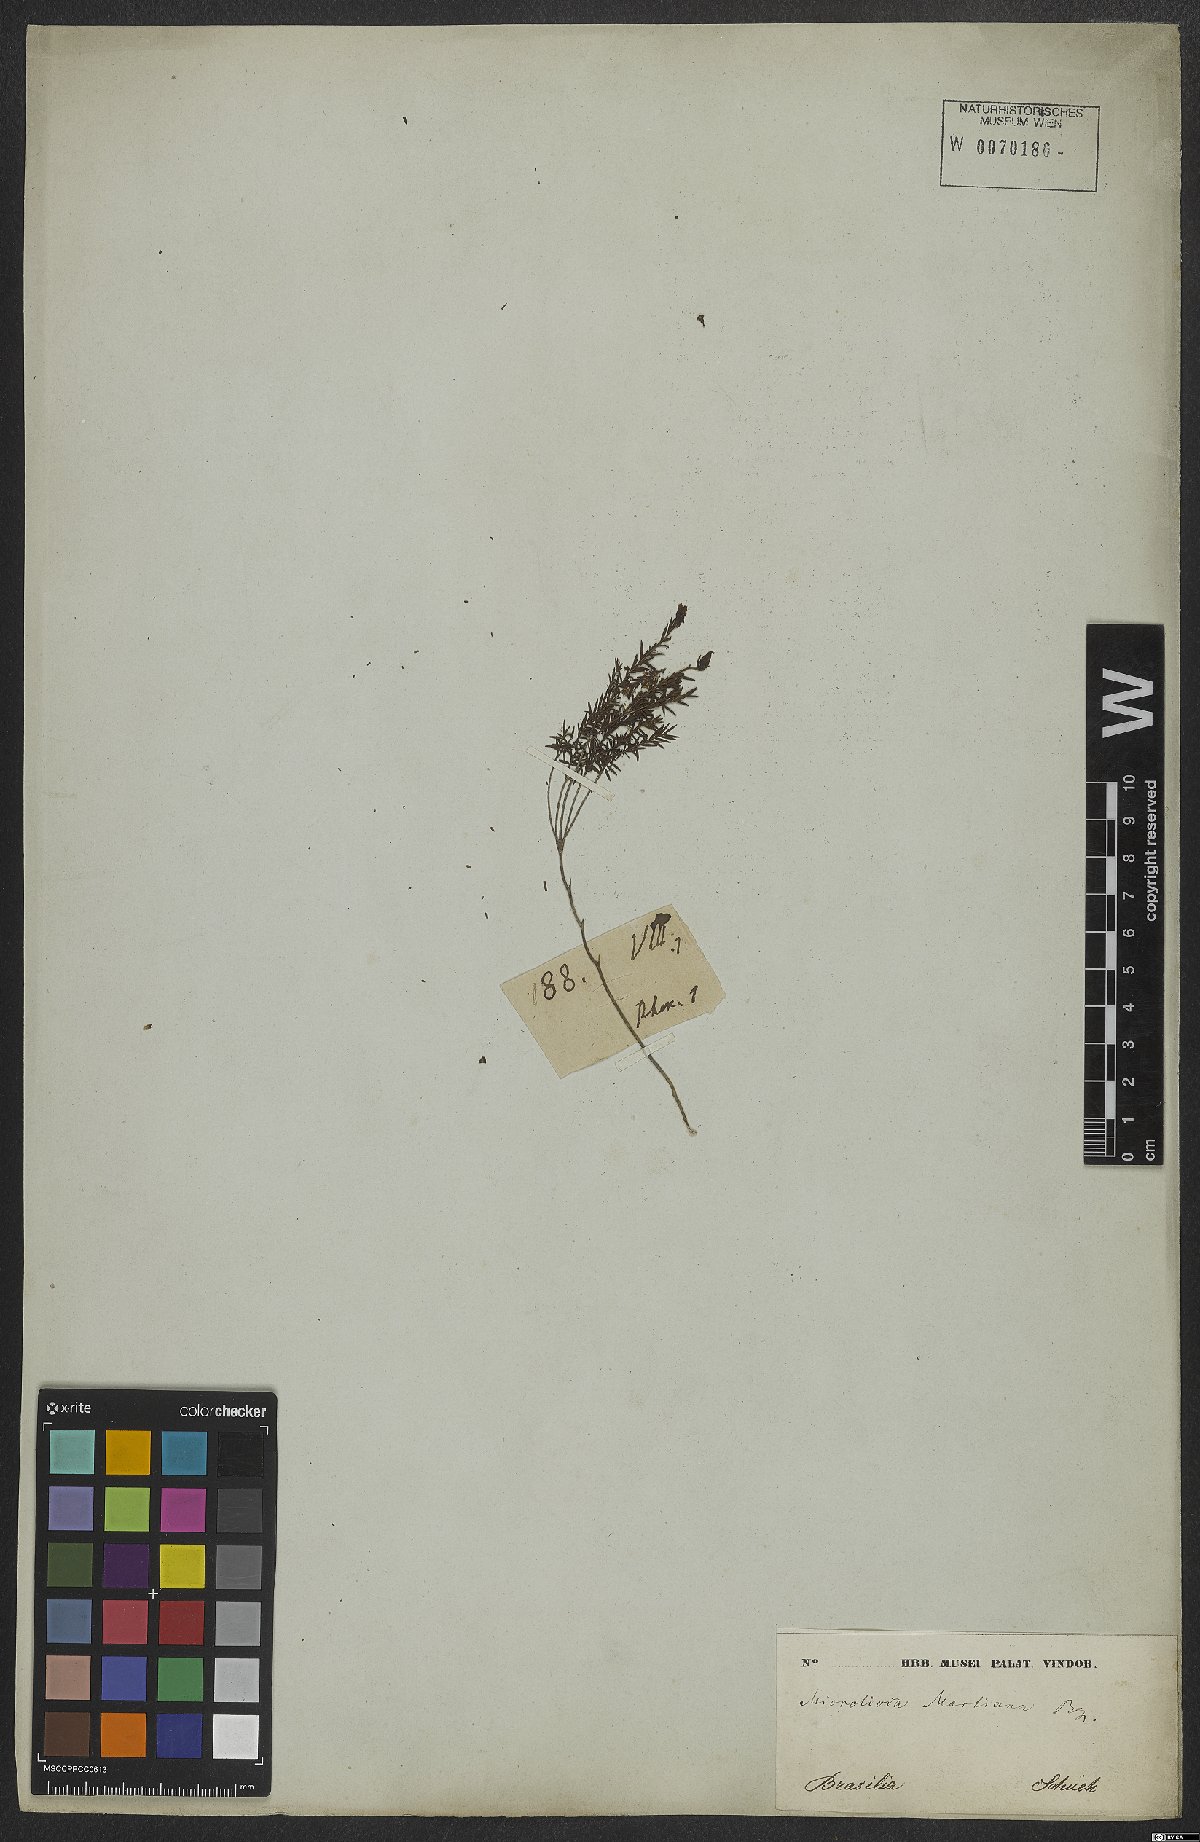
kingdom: Plantae
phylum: Tracheophyta
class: Magnoliopsida
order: Myrtales
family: Melastomataceae
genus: Microlicia
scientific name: Microlicia martiana
